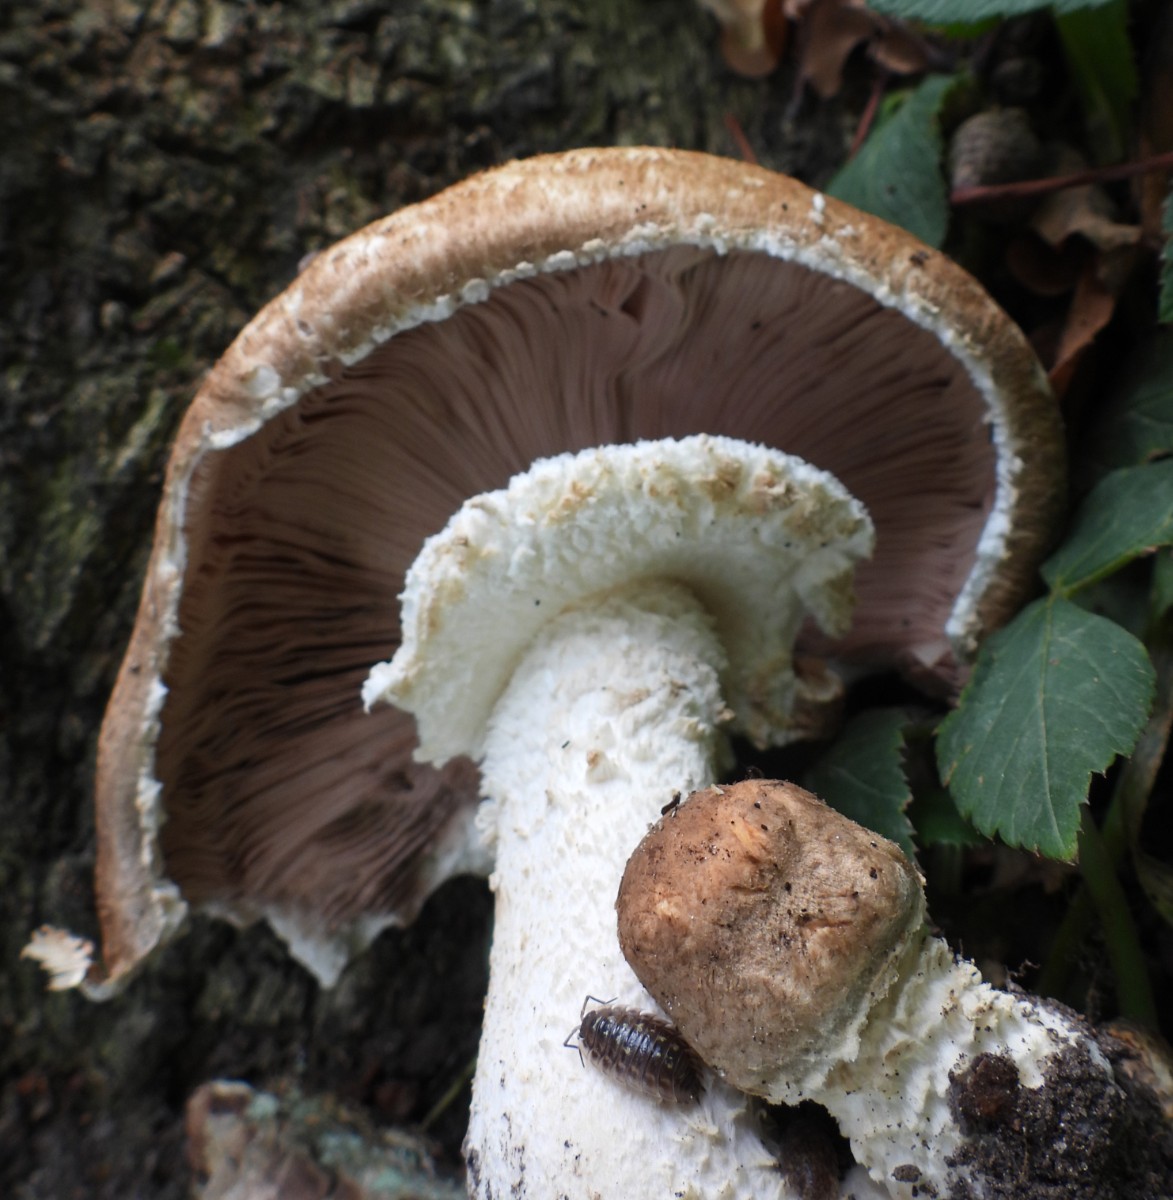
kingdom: Fungi
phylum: Basidiomycota
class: Agaricomycetes
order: Agaricales
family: Agaricaceae
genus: Agaricus
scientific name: Agaricus augustus
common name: prægtig champignon
